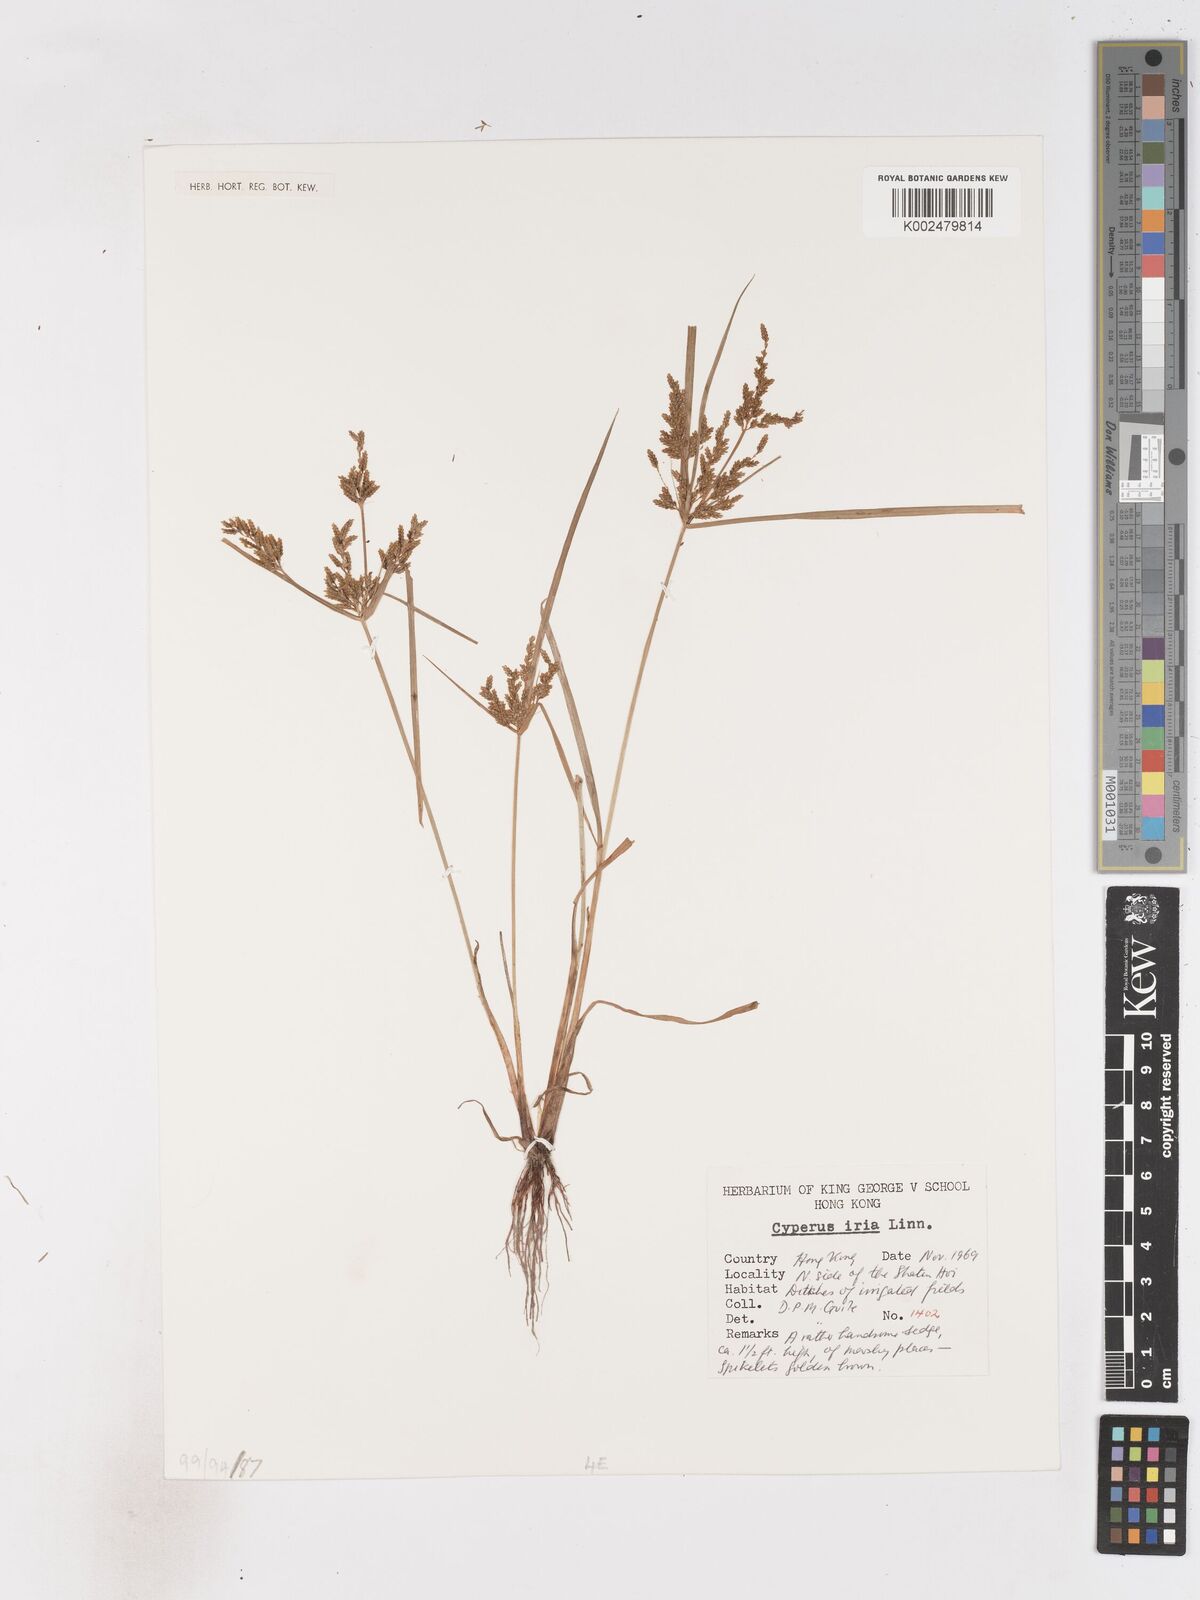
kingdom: Plantae
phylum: Tracheophyta
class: Liliopsida
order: Poales
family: Cyperaceae
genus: Cyperus
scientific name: Cyperus nutans
